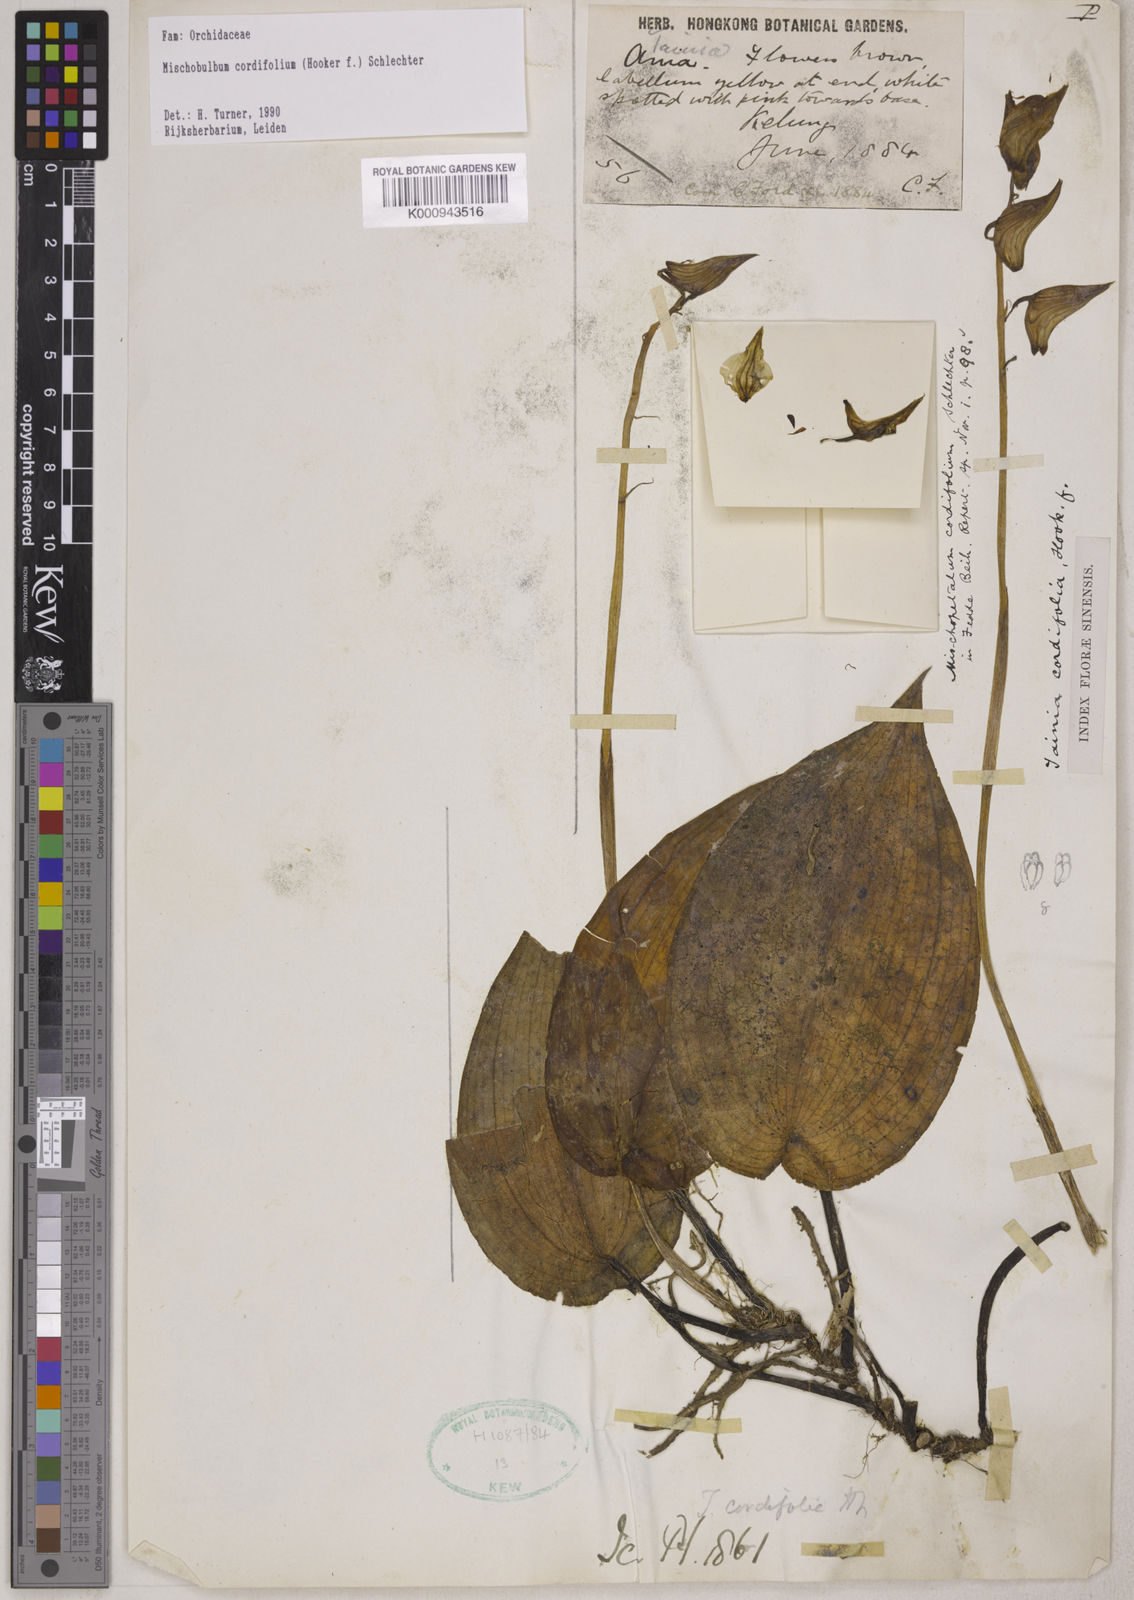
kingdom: Plantae
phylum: Tracheophyta
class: Liliopsida
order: Asparagales
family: Orchidaceae
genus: Tainia
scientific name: Tainia cordifolia
